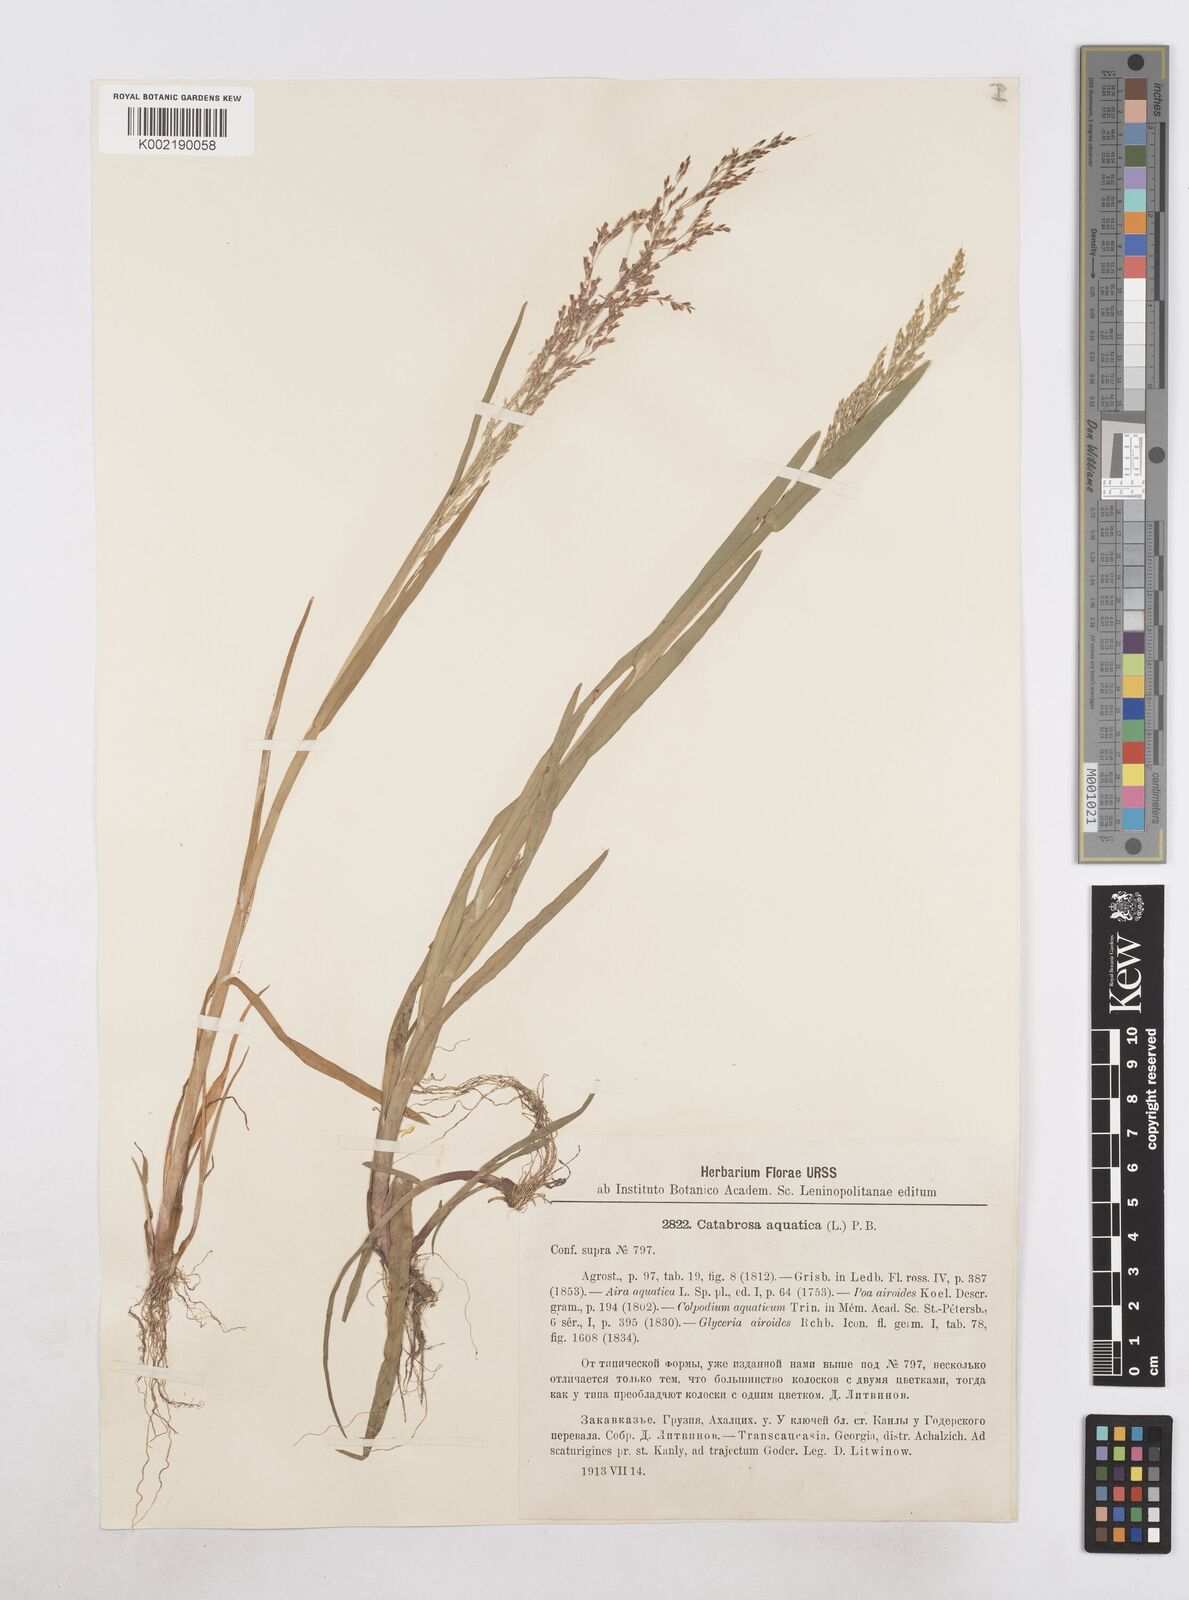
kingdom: Plantae
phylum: Tracheophyta
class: Liliopsida
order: Poales
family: Poaceae
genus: Catabrosa
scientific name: Catabrosa aquatica
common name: Whorl-grass
